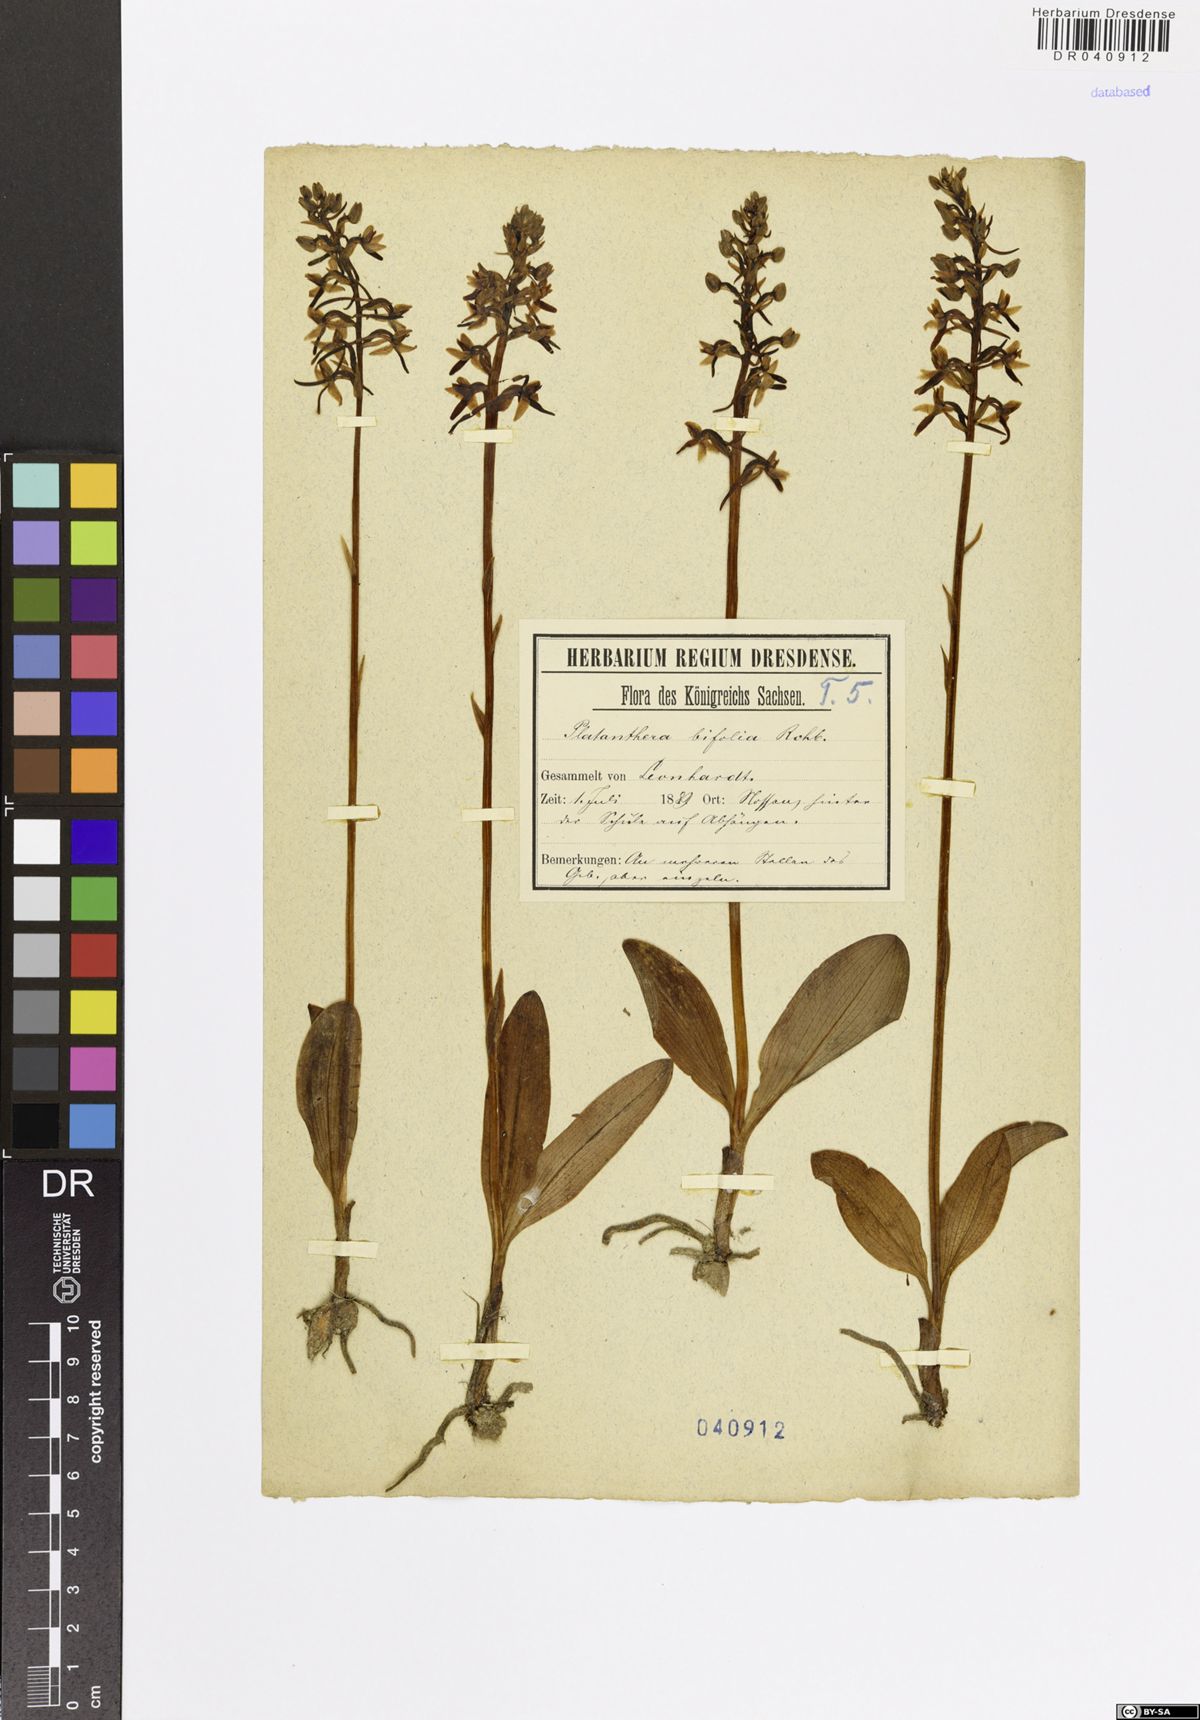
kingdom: Plantae
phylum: Tracheophyta
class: Liliopsida
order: Asparagales
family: Orchidaceae
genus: Platanthera
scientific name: Platanthera bifolia
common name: Lesser butterfly-orchid
